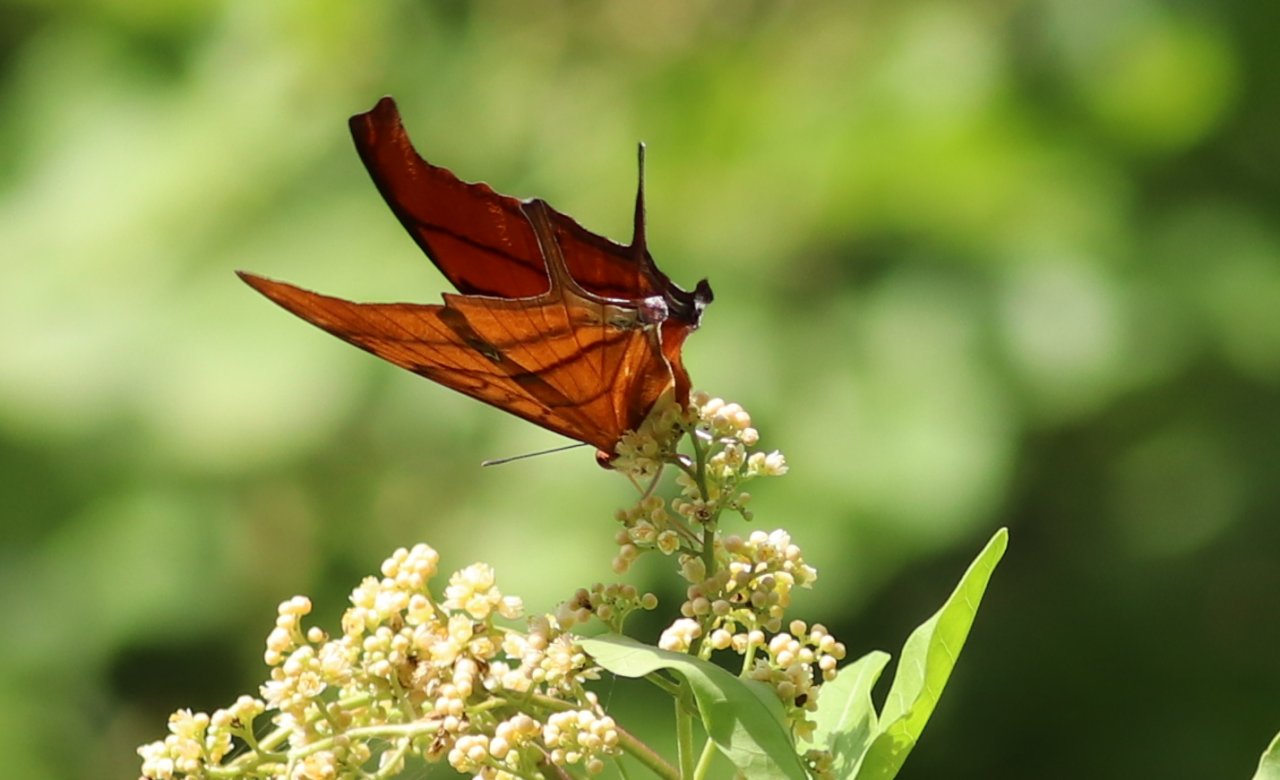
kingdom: Animalia
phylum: Arthropoda
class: Insecta
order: Lepidoptera
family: Nymphalidae
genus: Marpesia
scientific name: Marpesia petreus
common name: Ruddy Daggerwing
